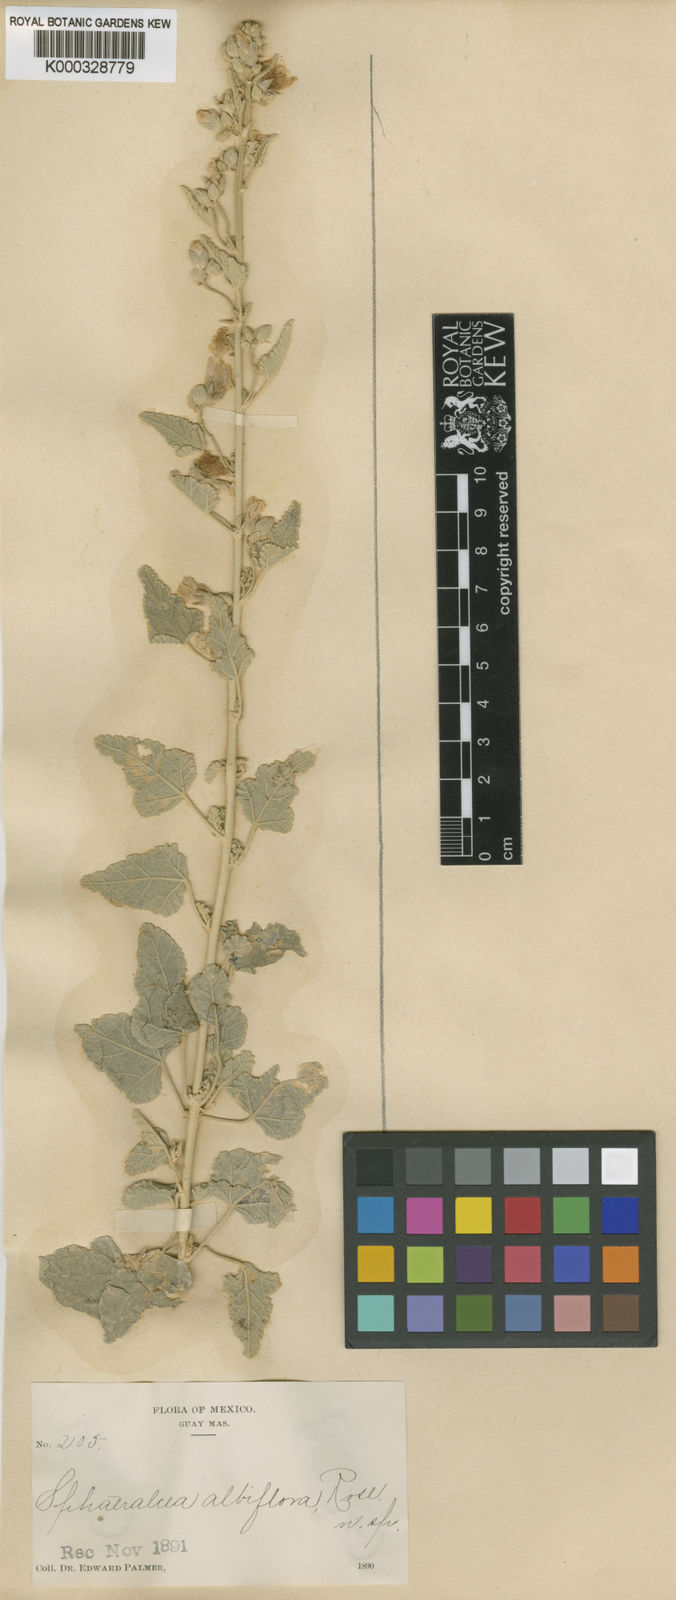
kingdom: Plantae
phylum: Tracheophyta
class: Magnoliopsida
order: Malvales
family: Malvaceae
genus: Sphaeralcea
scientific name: Sphaeralcea axillaris
